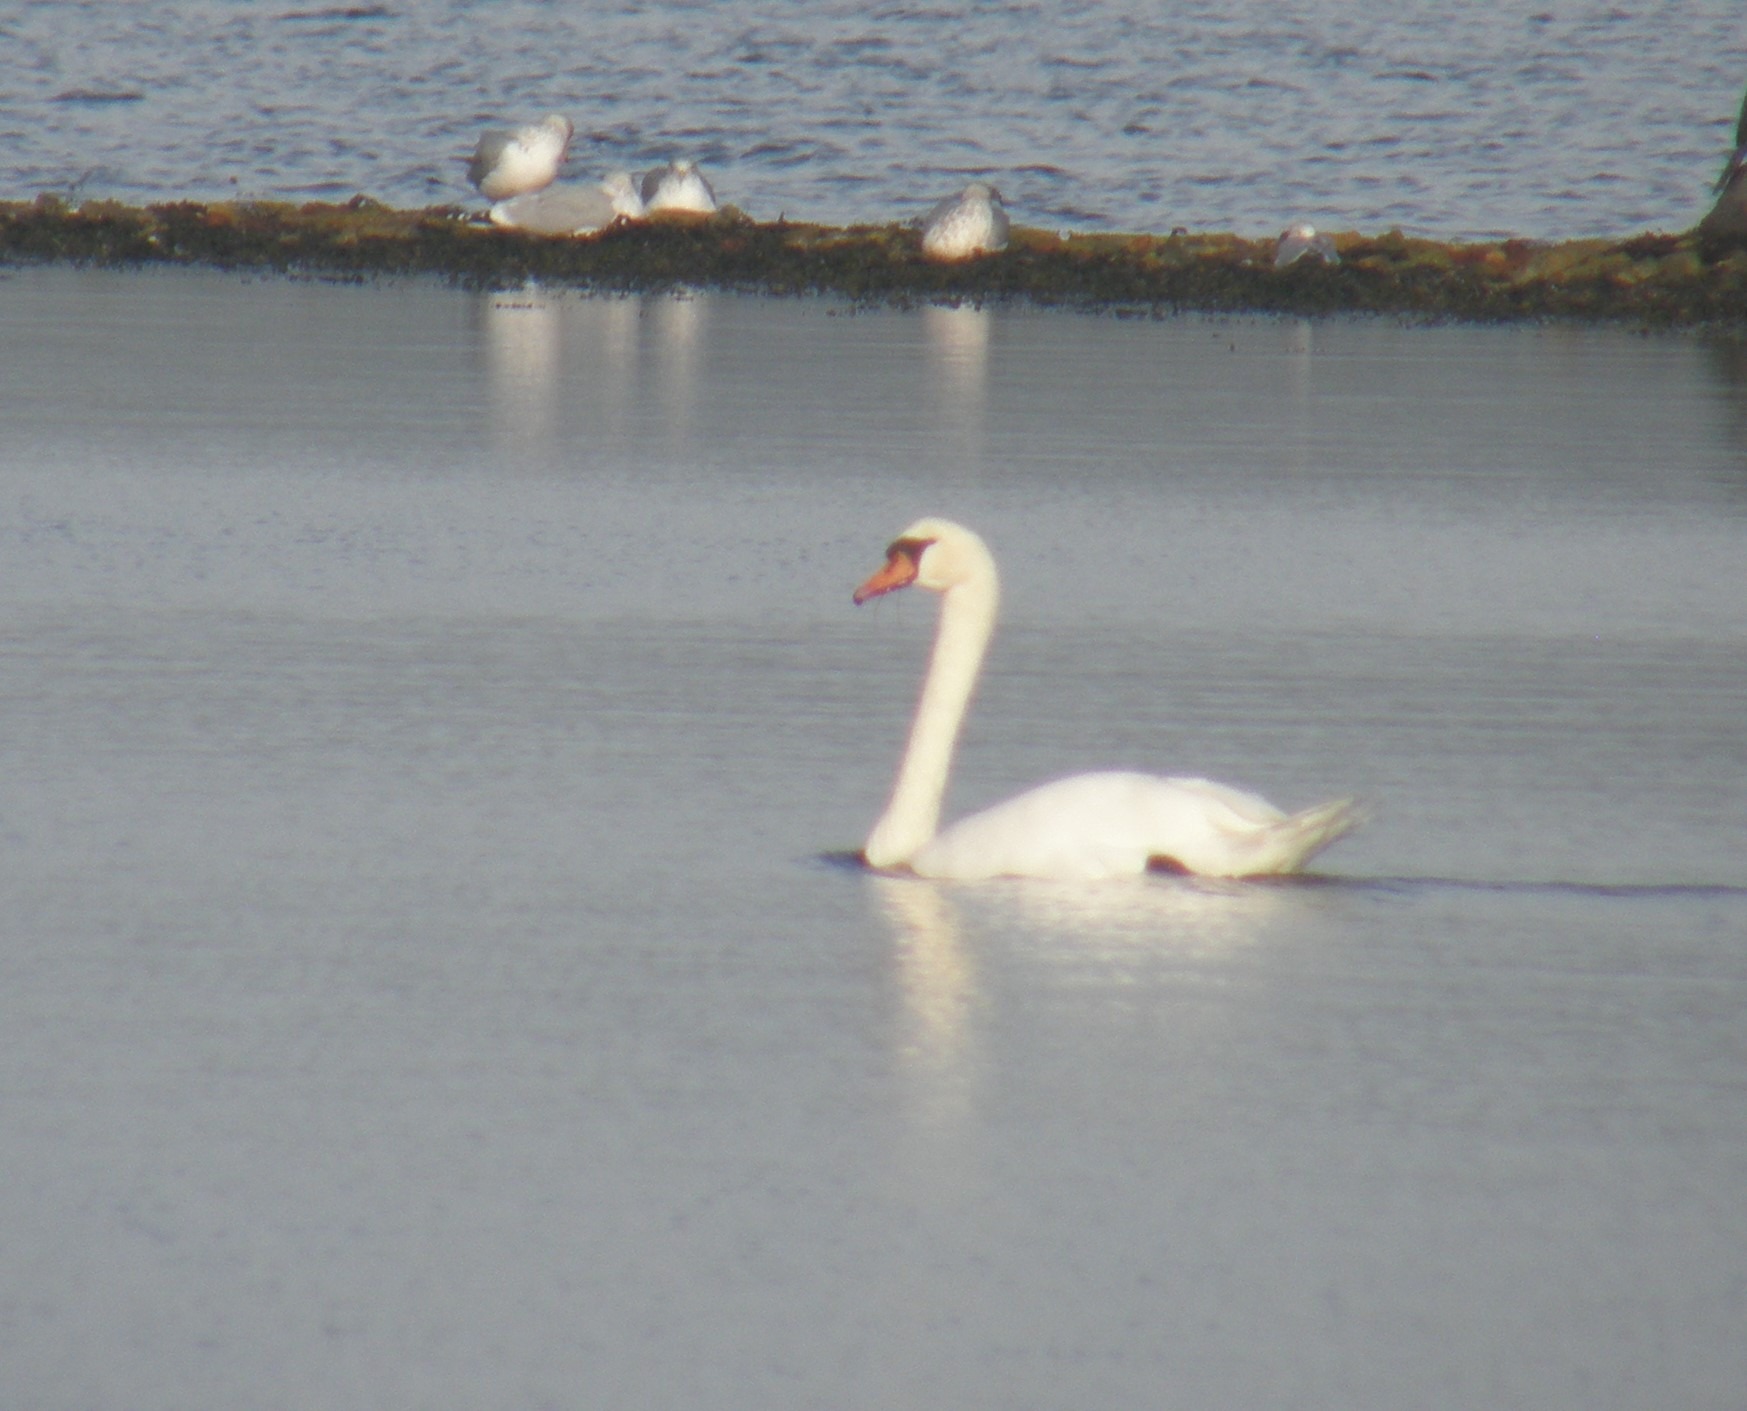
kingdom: Animalia
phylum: Chordata
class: Aves
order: Anseriformes
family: Anatidae
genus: Cygnus
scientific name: Cygnus olor
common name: Knopsvane
